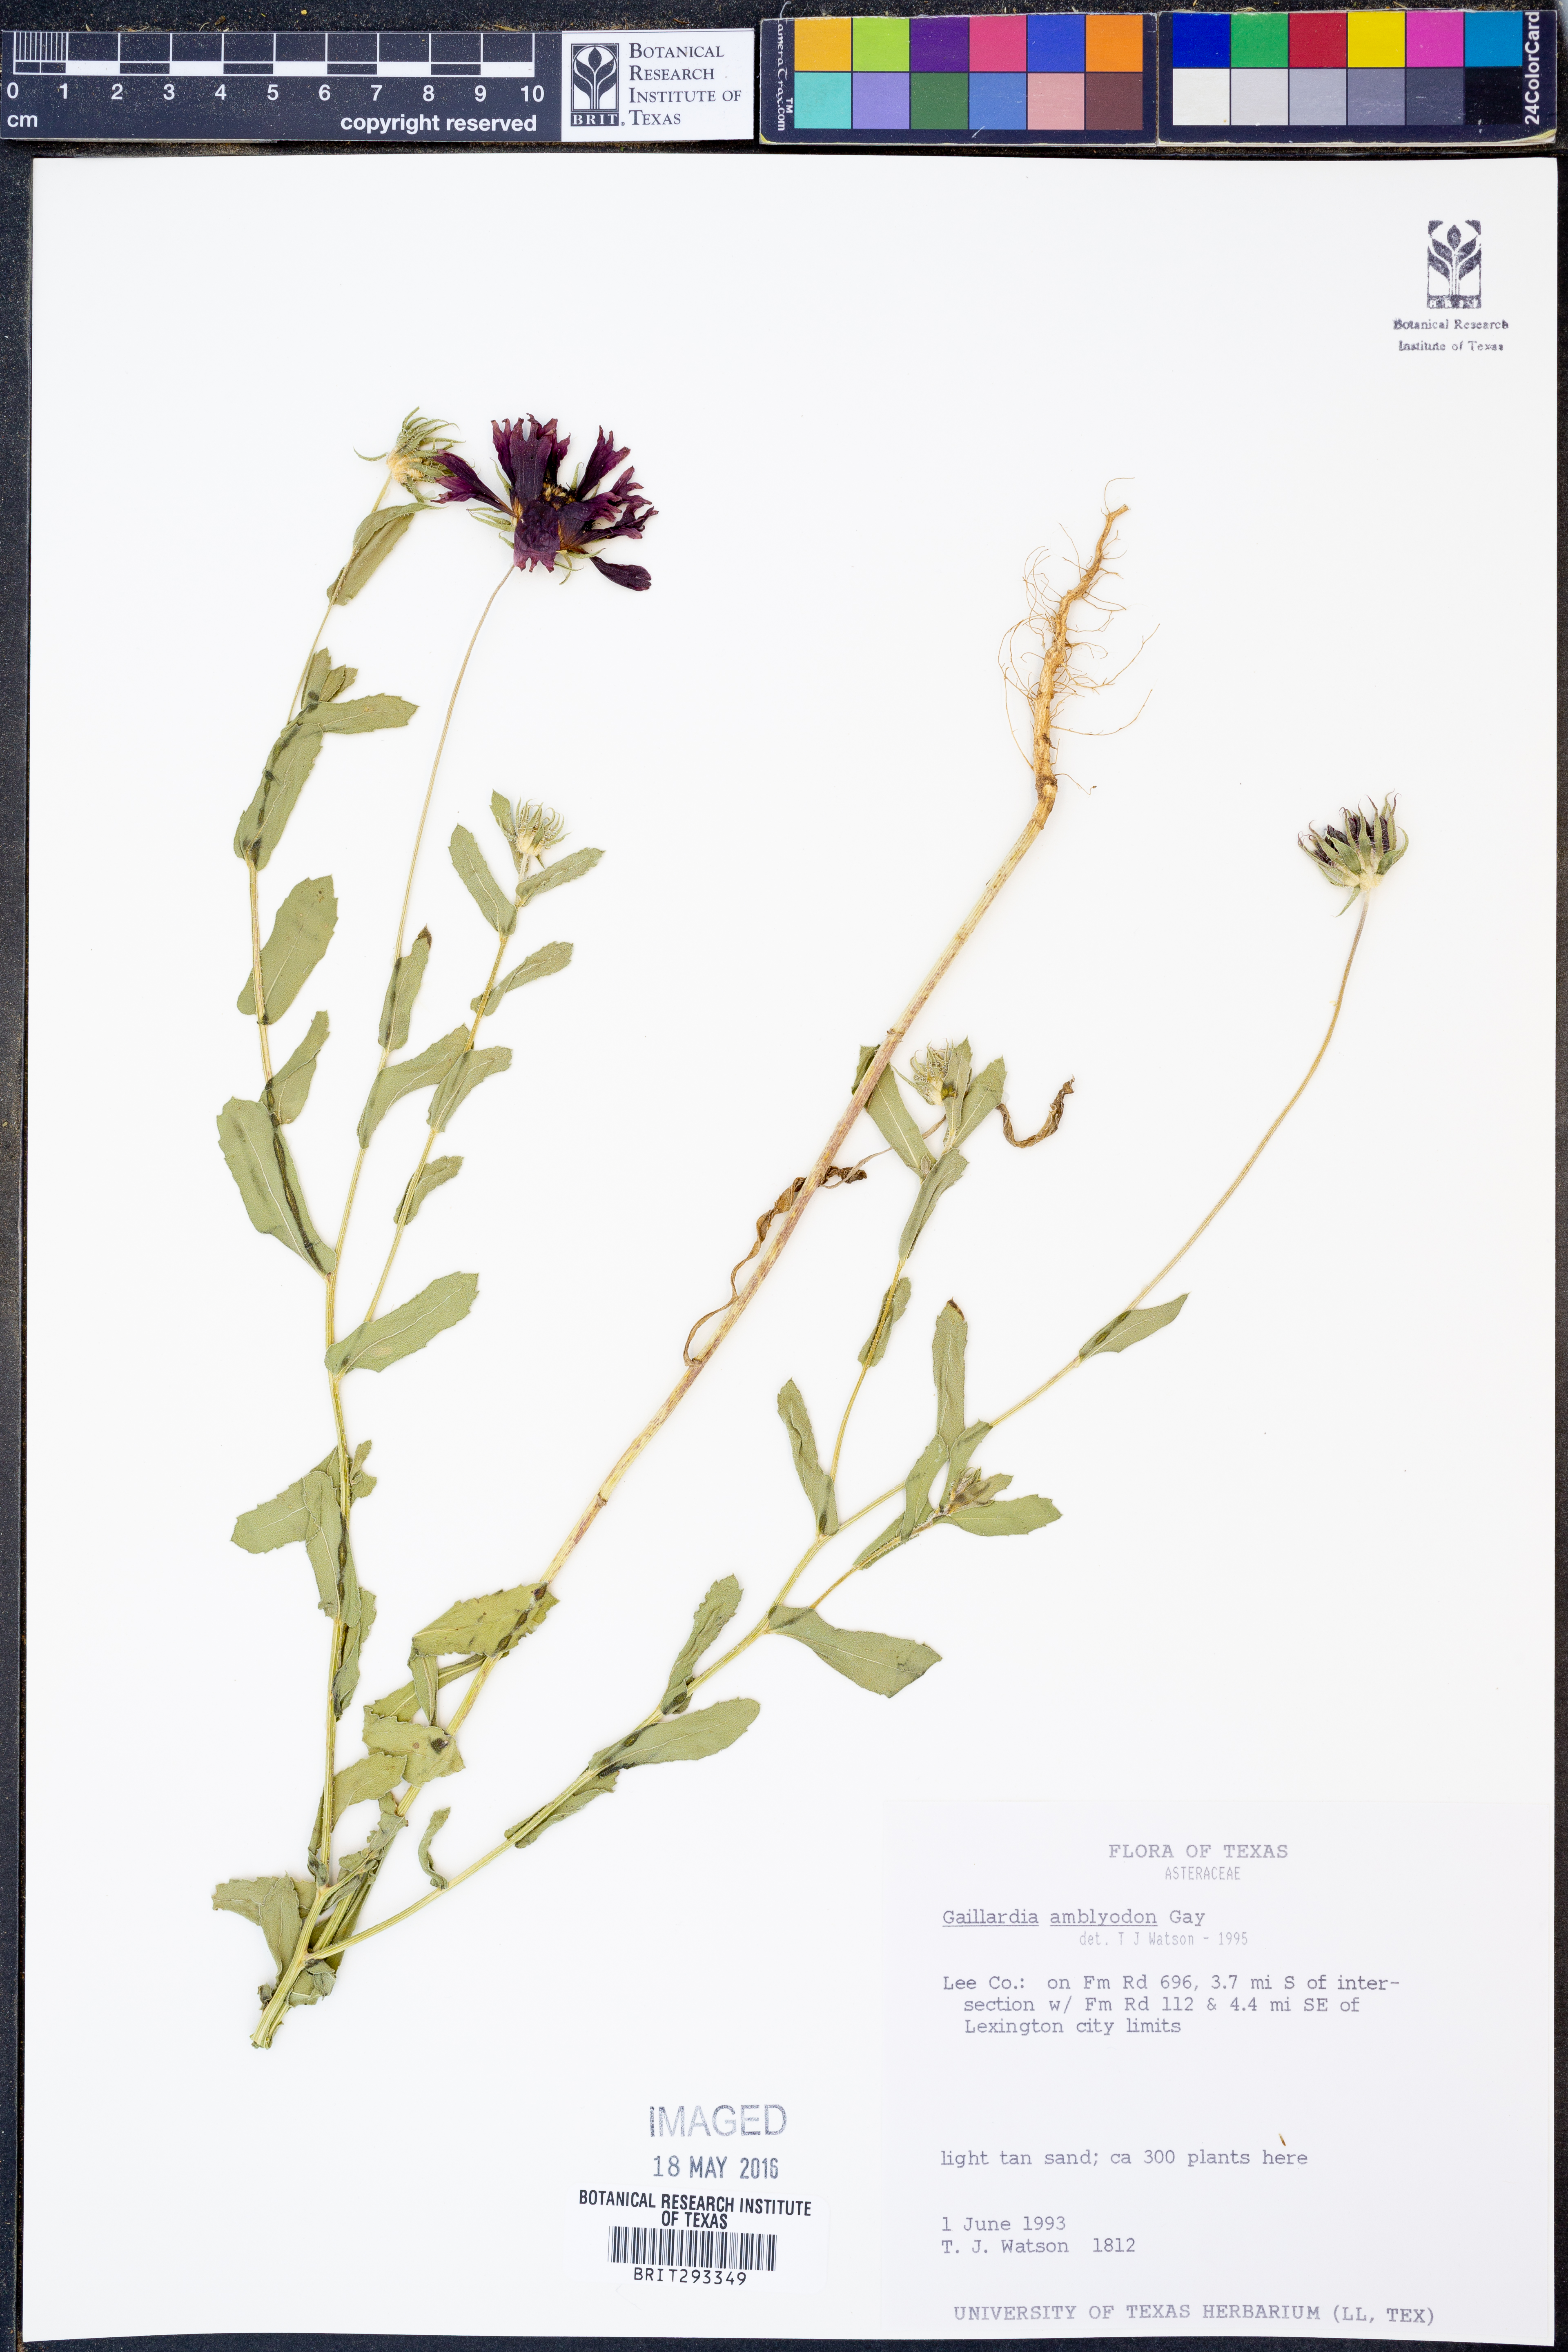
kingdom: Plantae
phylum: Tracheophyta
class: Magnoliopsida
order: Asterales
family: Asteraceae
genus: Gaillardia
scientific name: Gaillardia amblyodon
